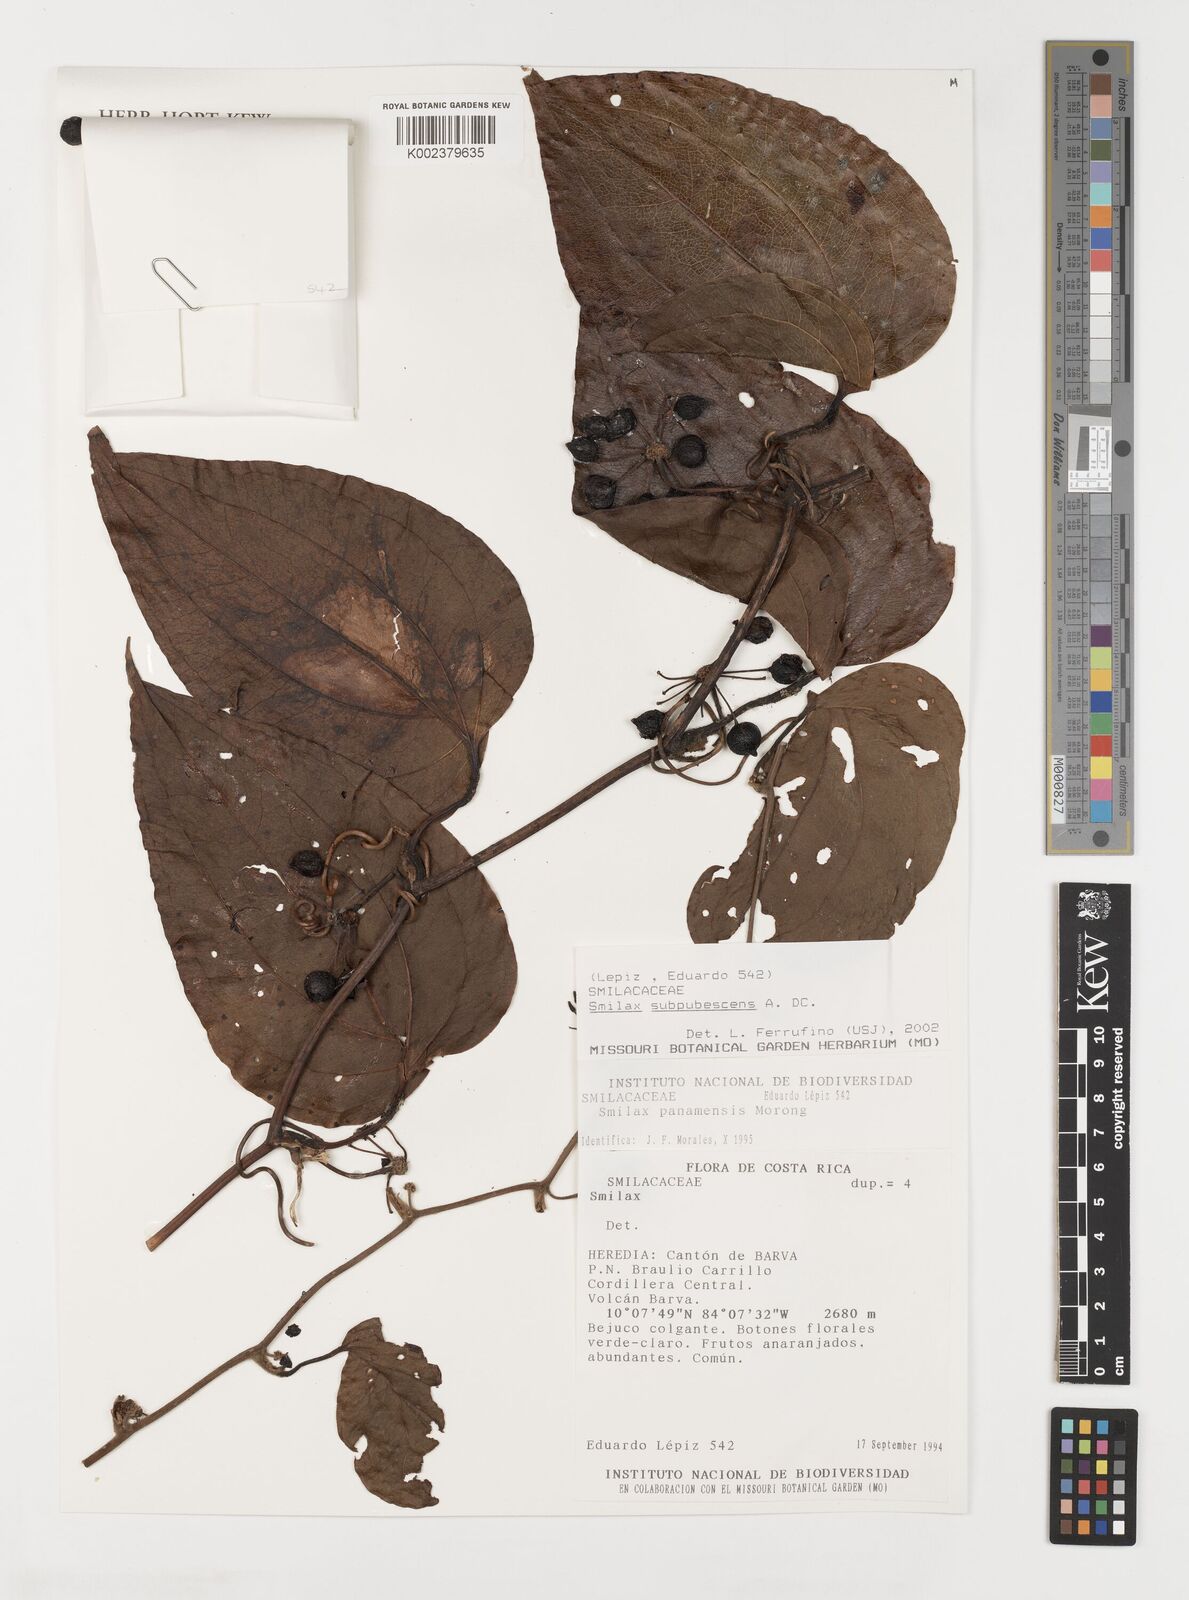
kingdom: Plantae
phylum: Tracheophyta
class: Liliopsida
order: Liliales
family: Smilacaceae
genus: Smilax
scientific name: Smilax subpubescens
